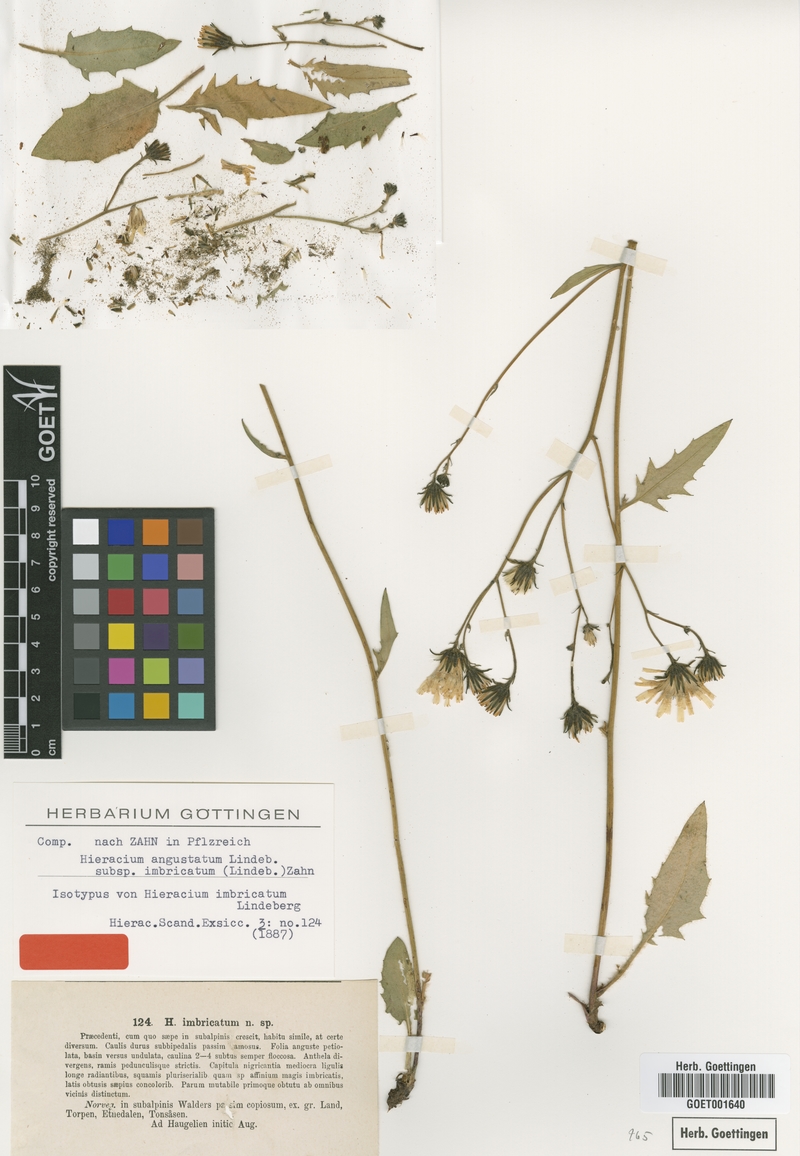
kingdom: Plantae
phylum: Tracheophyta
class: Magnoliopsida
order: Asterales
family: Asteraceae
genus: Hieracium
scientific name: Hieracium imbricatum
